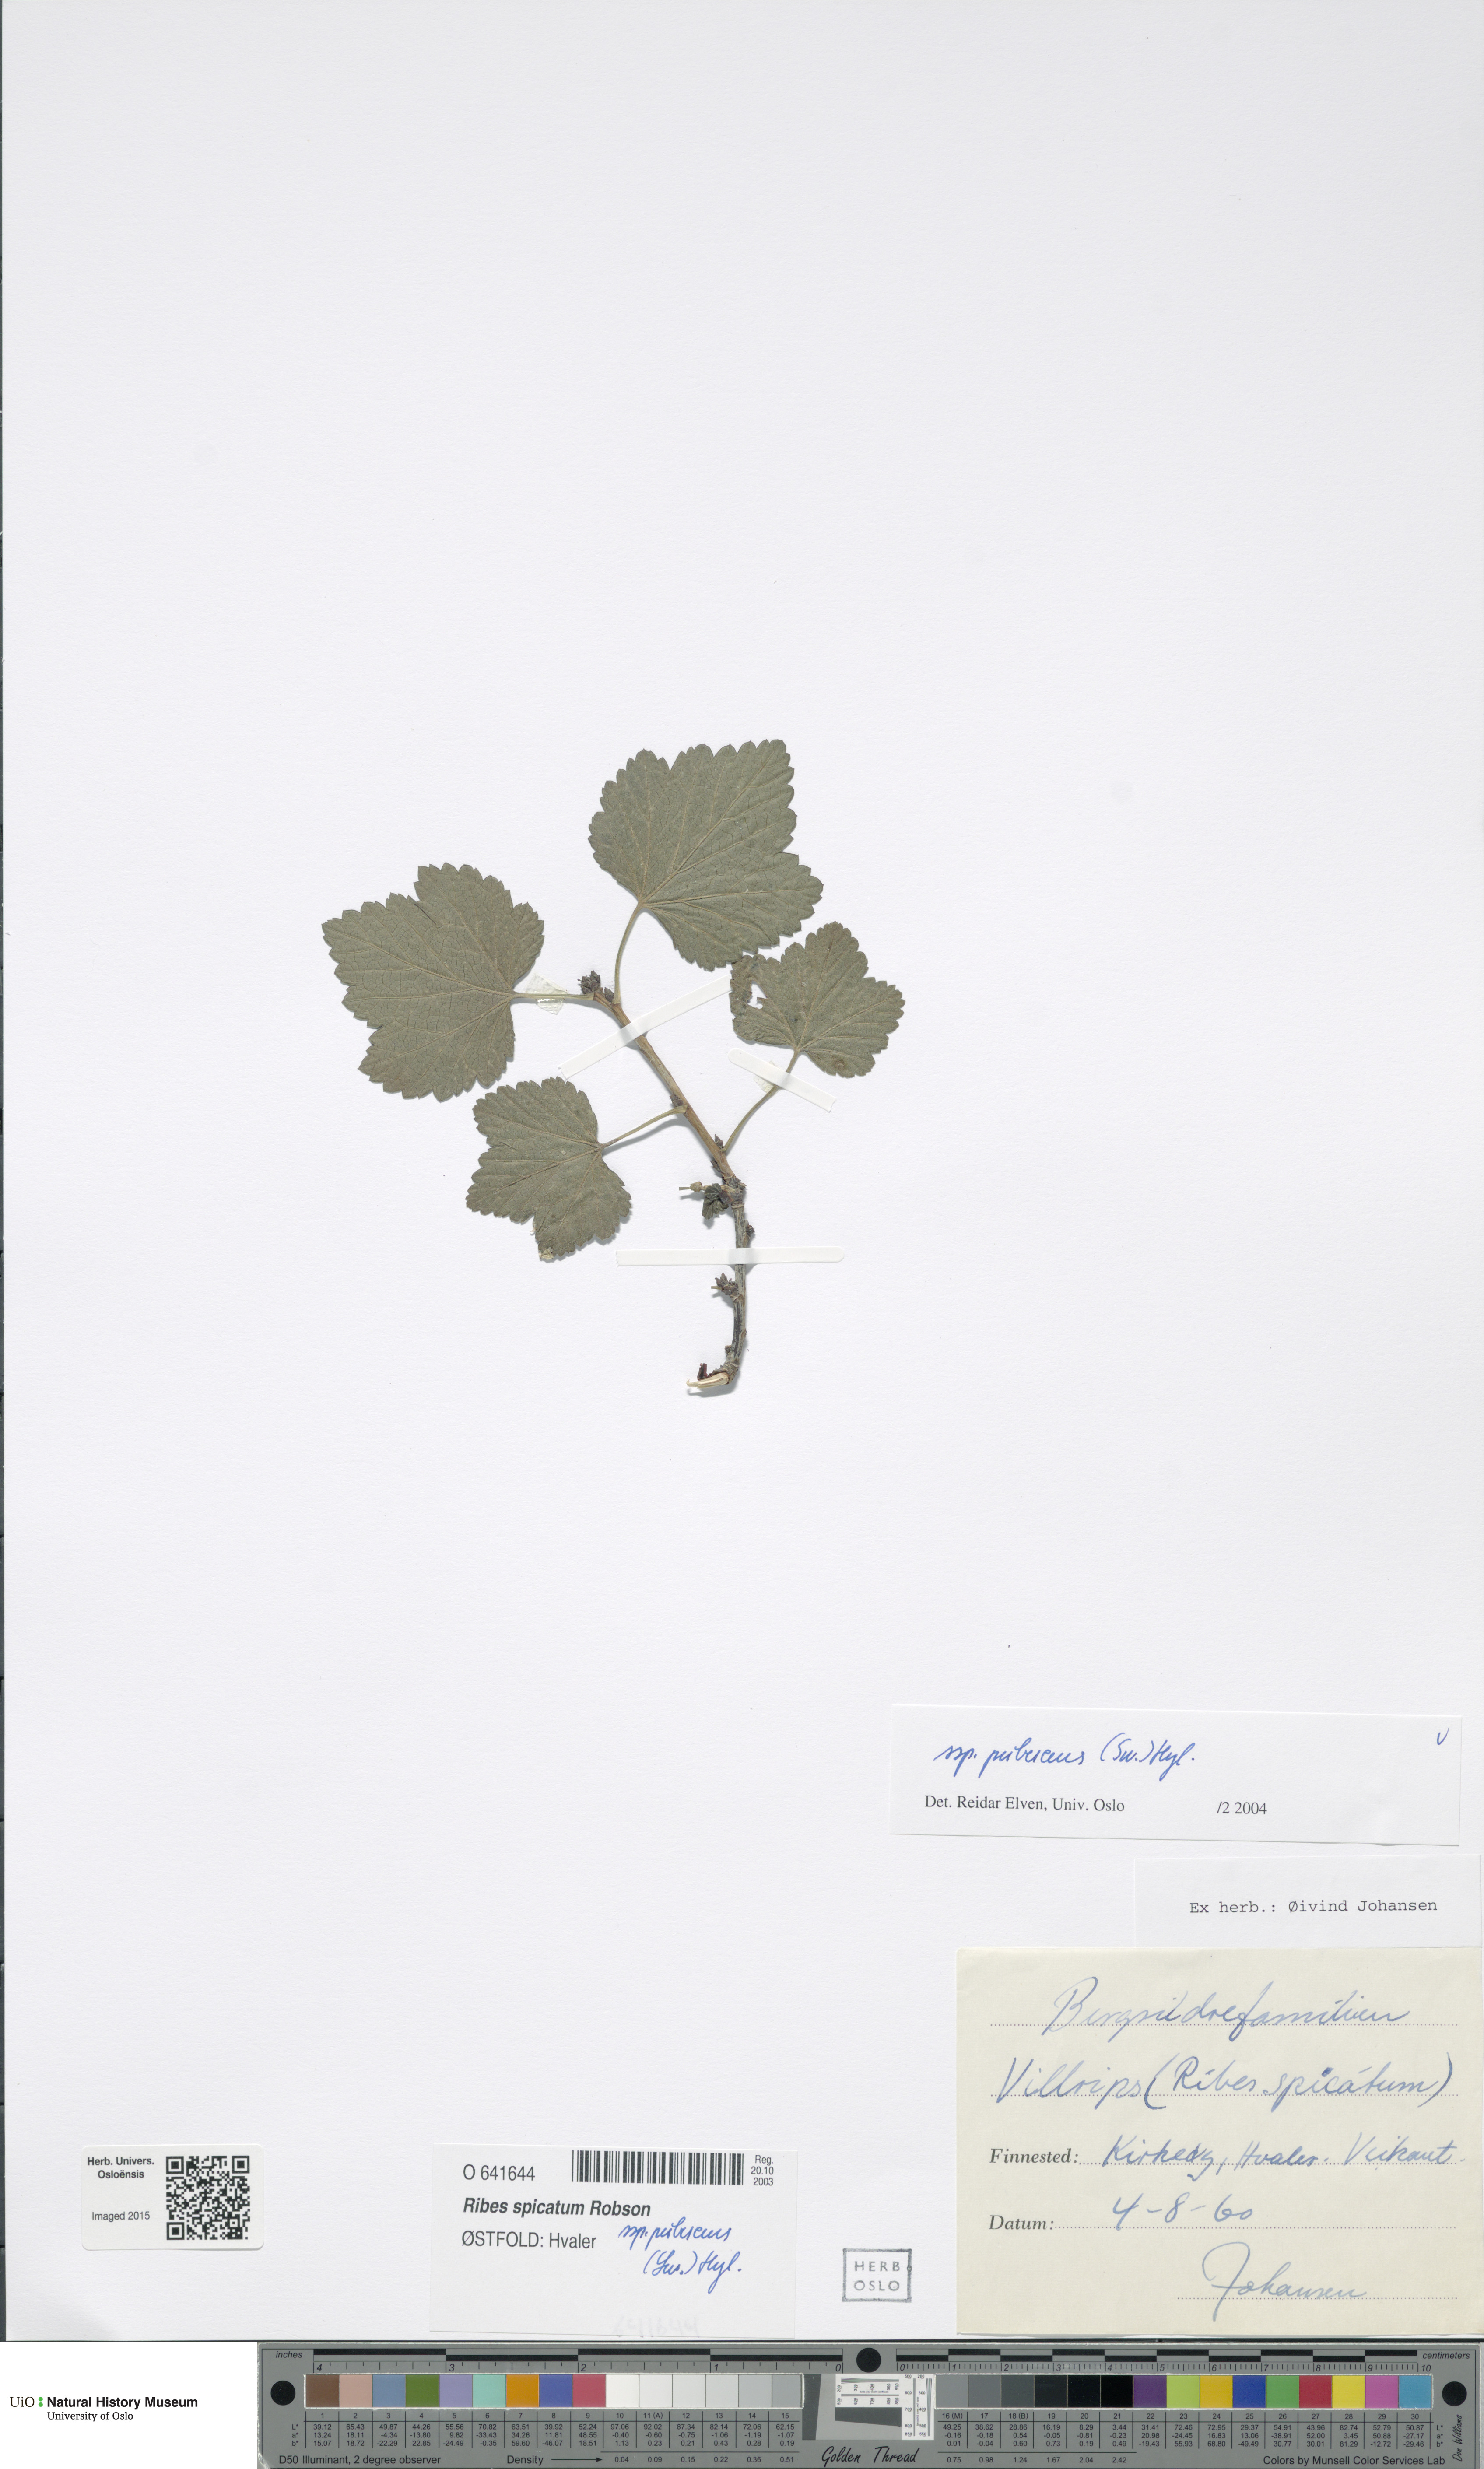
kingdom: Plantae
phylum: Tracheophyta
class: Magnoliopsida
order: Saxifragales
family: Grossulariaceae
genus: Ribes
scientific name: Ribes spicatum
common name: Downy currant
